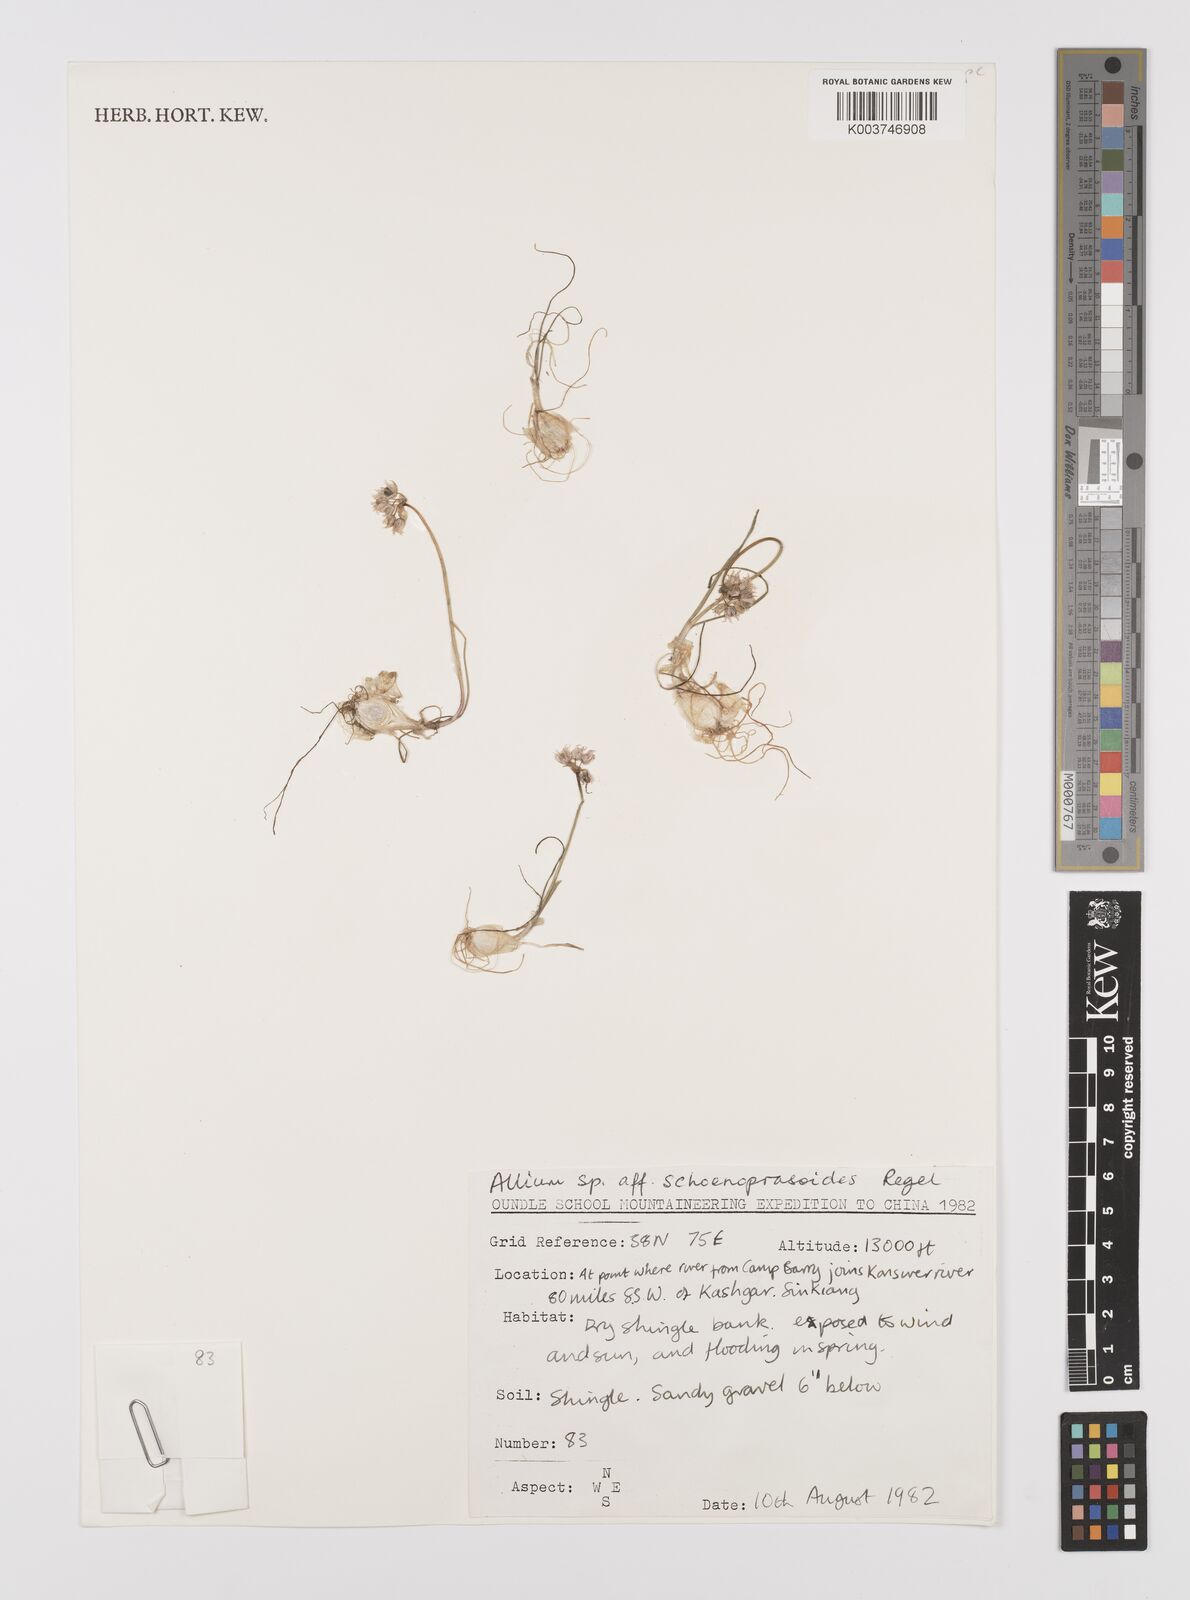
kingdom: Plantae
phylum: Tracheophyta
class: Liliopsida
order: Asparagales
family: Amaryllidaceae
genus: Allium
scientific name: Allium schoenoprasoides
